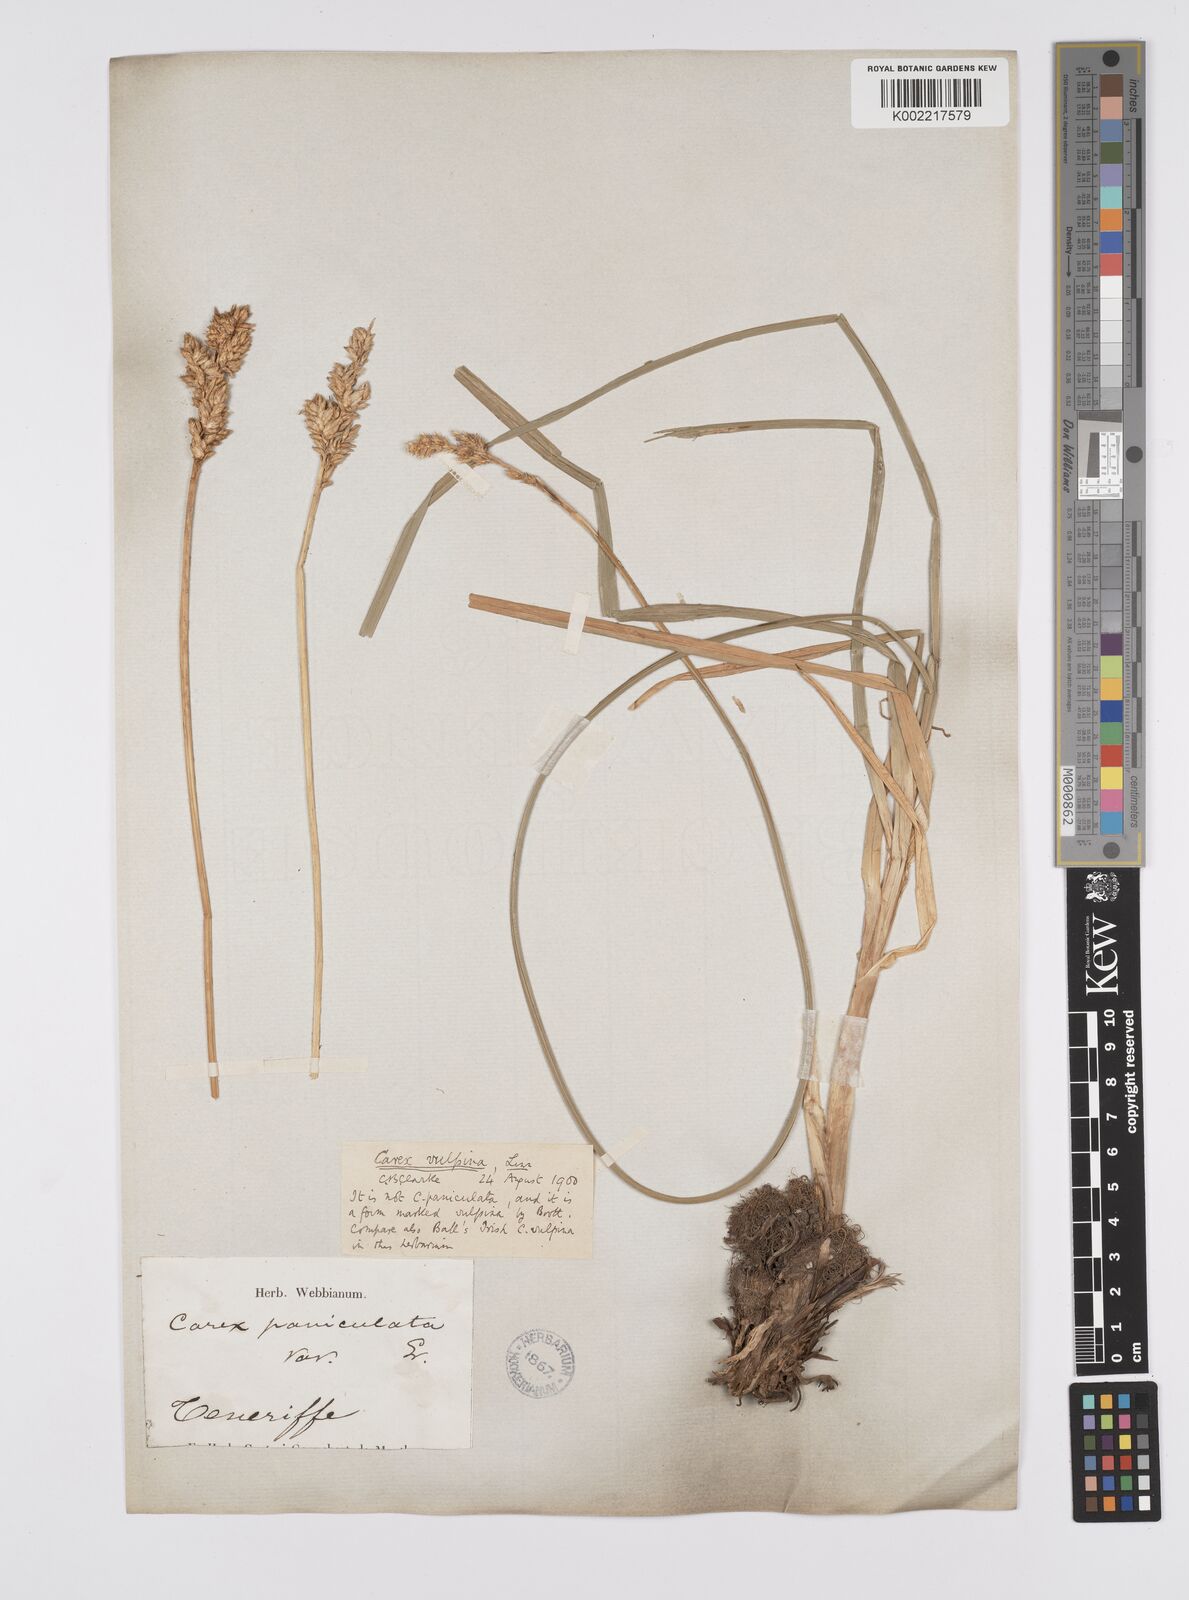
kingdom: Plantae
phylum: Tracheophyta
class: Liliopsida
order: Poales
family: Cyperaceae
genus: Carex
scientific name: Carex vulpina
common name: True fox-sedge
